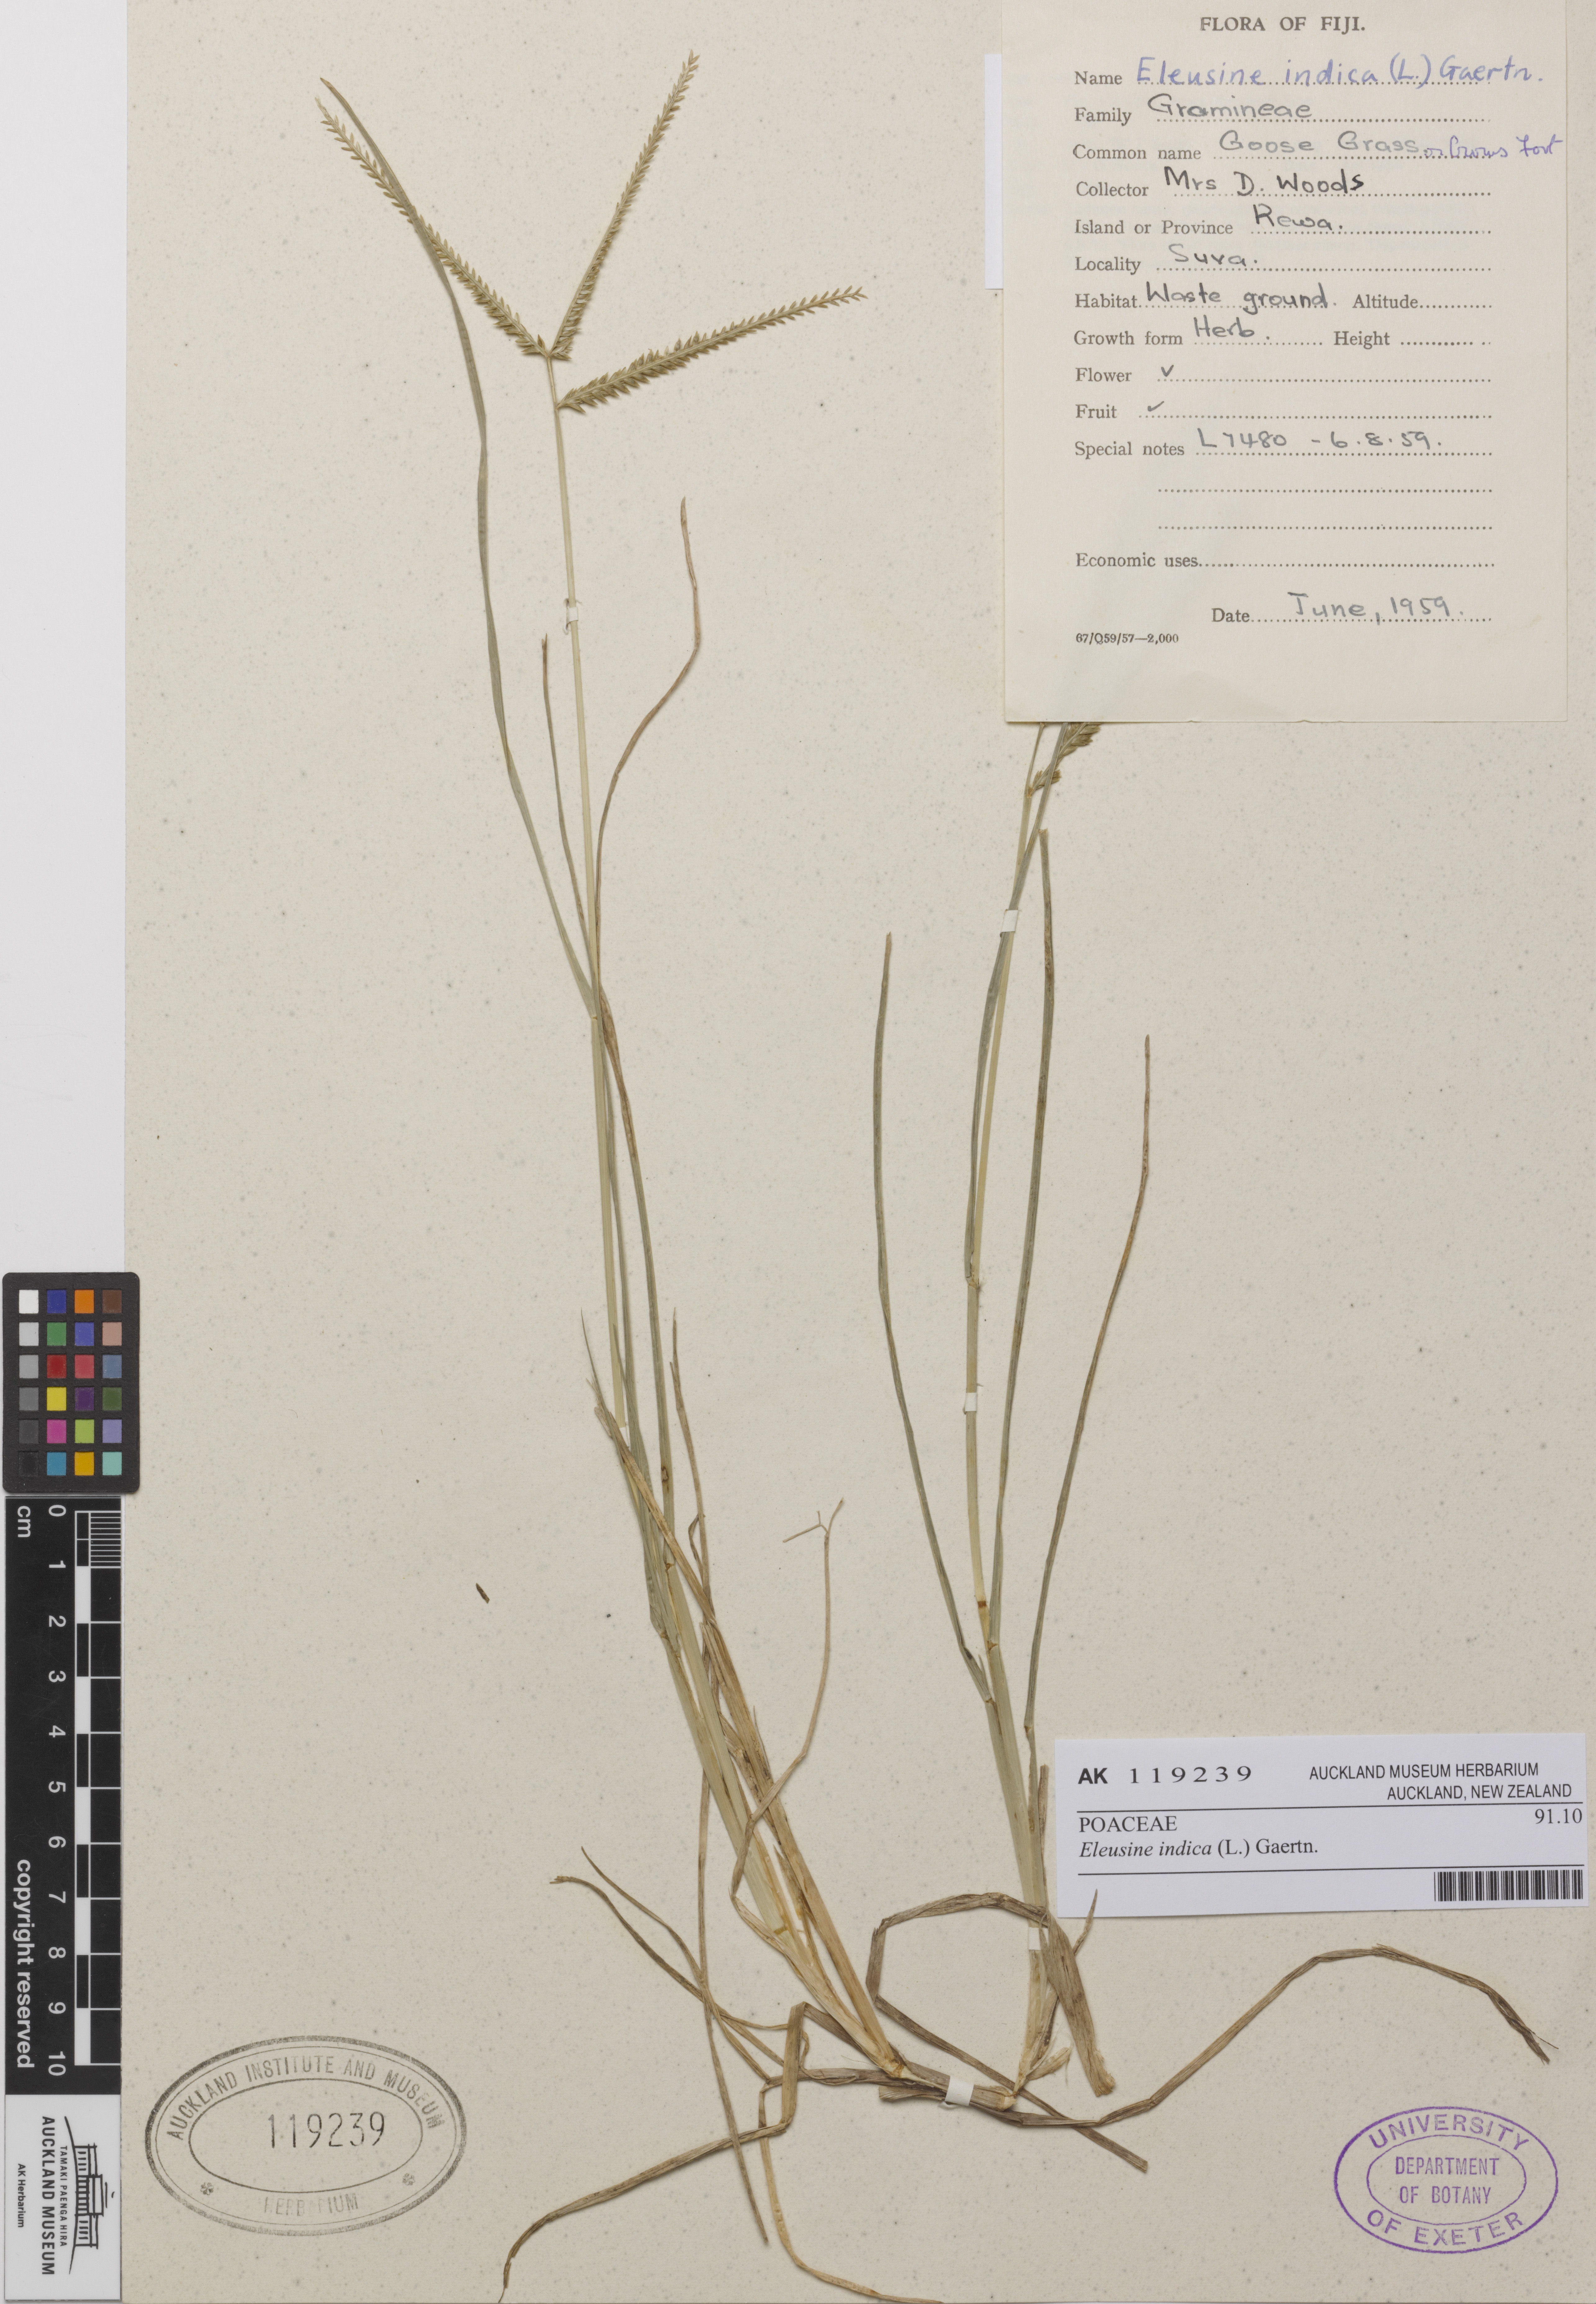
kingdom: Plantae
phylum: Tracheophyta
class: Liliopsida
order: Poales
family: Poaceae
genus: Eleusine
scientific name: Eleusine indica
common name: Yard-grass
